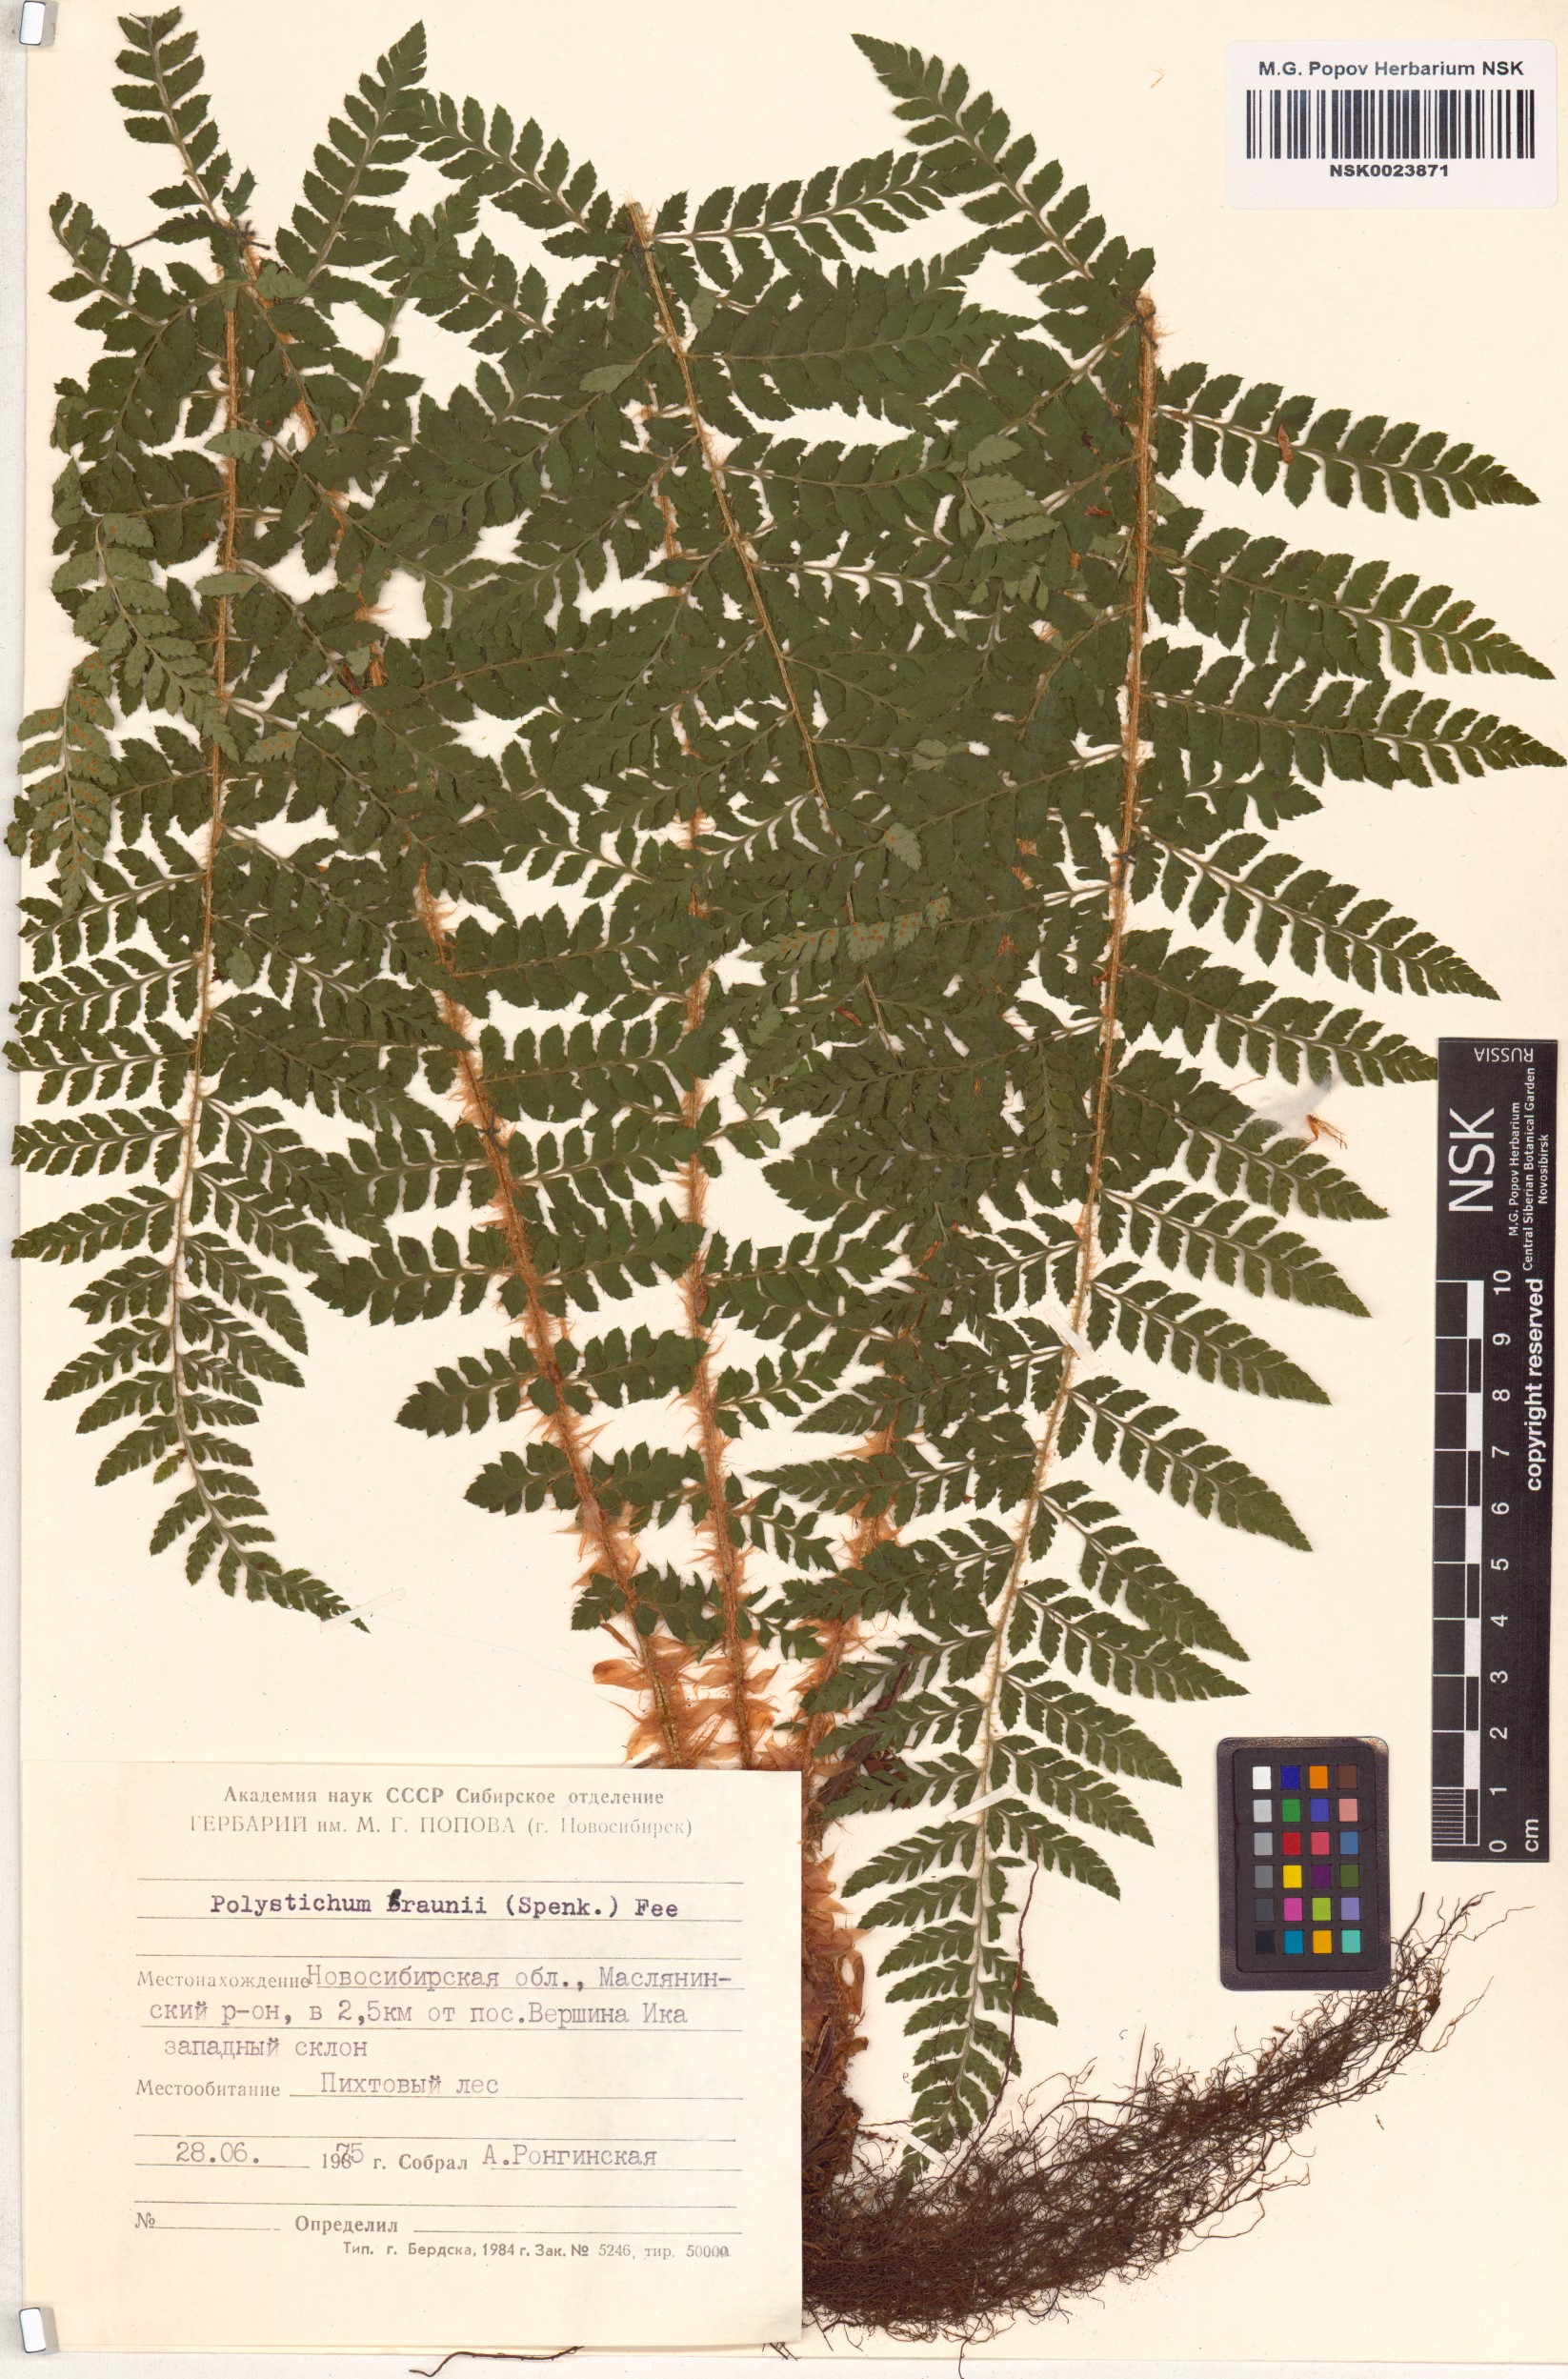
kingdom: Plantae
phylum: Tracheophyta
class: Polypodiopsida
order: Polypodiales
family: Dryopteridaceae
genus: Polystichum
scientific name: Polystichum braunii
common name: Braun's holly fern
